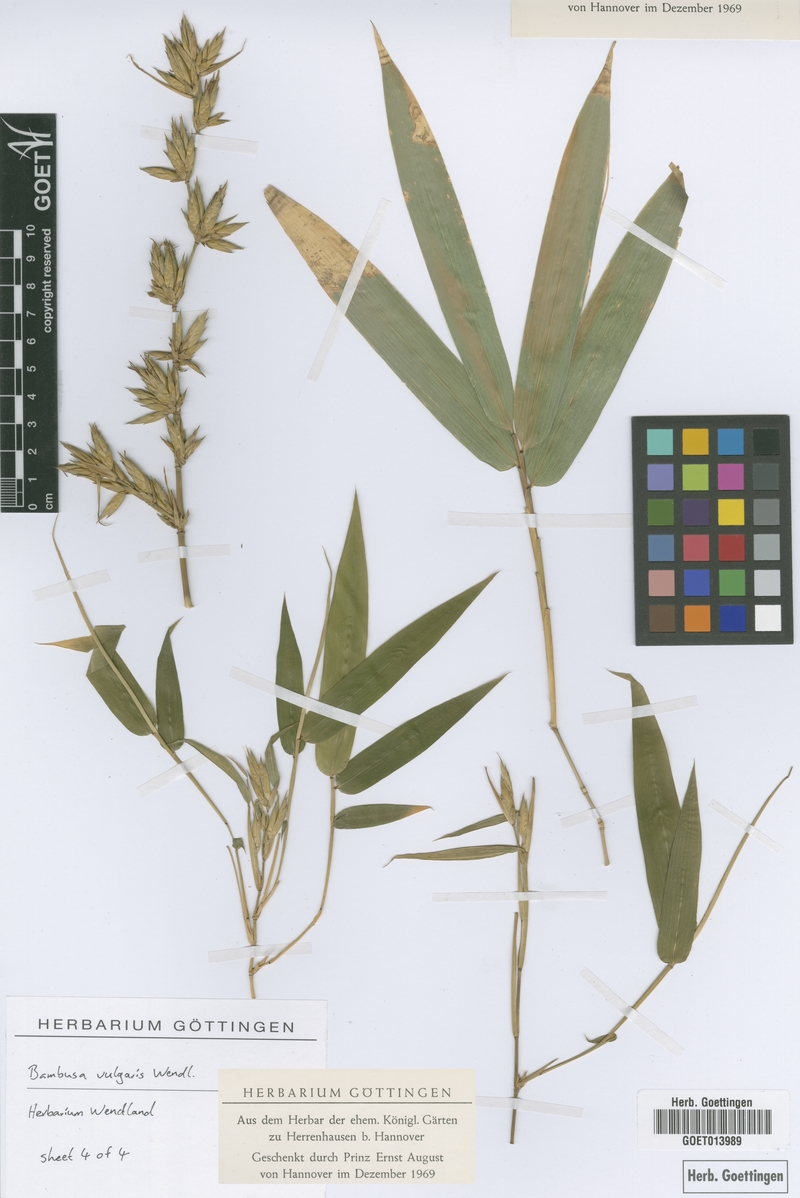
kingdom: Plantae
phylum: Tracheophyta
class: Liliopsida
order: Poales
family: Poaceae
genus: Bambusa
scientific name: Bambusa vulgaris
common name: Common bamboo
